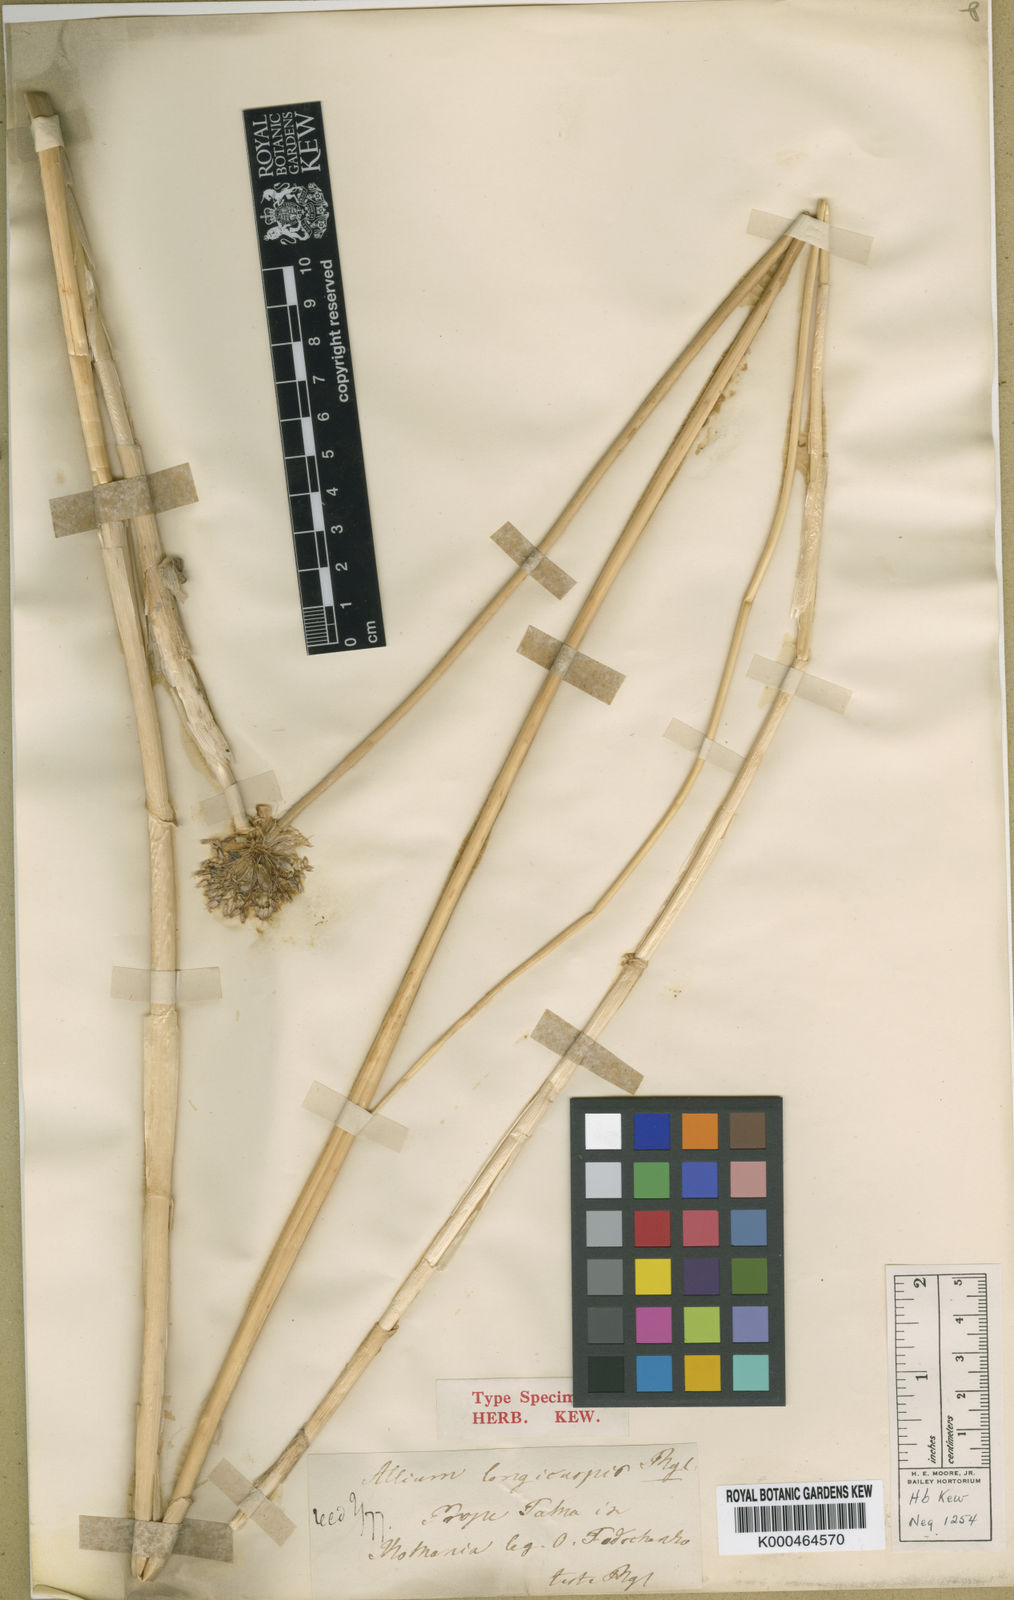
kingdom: Plantae
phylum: Tracheophyta
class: Liliopsida
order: Asparagales
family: Amaryllidaceae
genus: Allium
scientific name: Allium sativum
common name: Garlic
